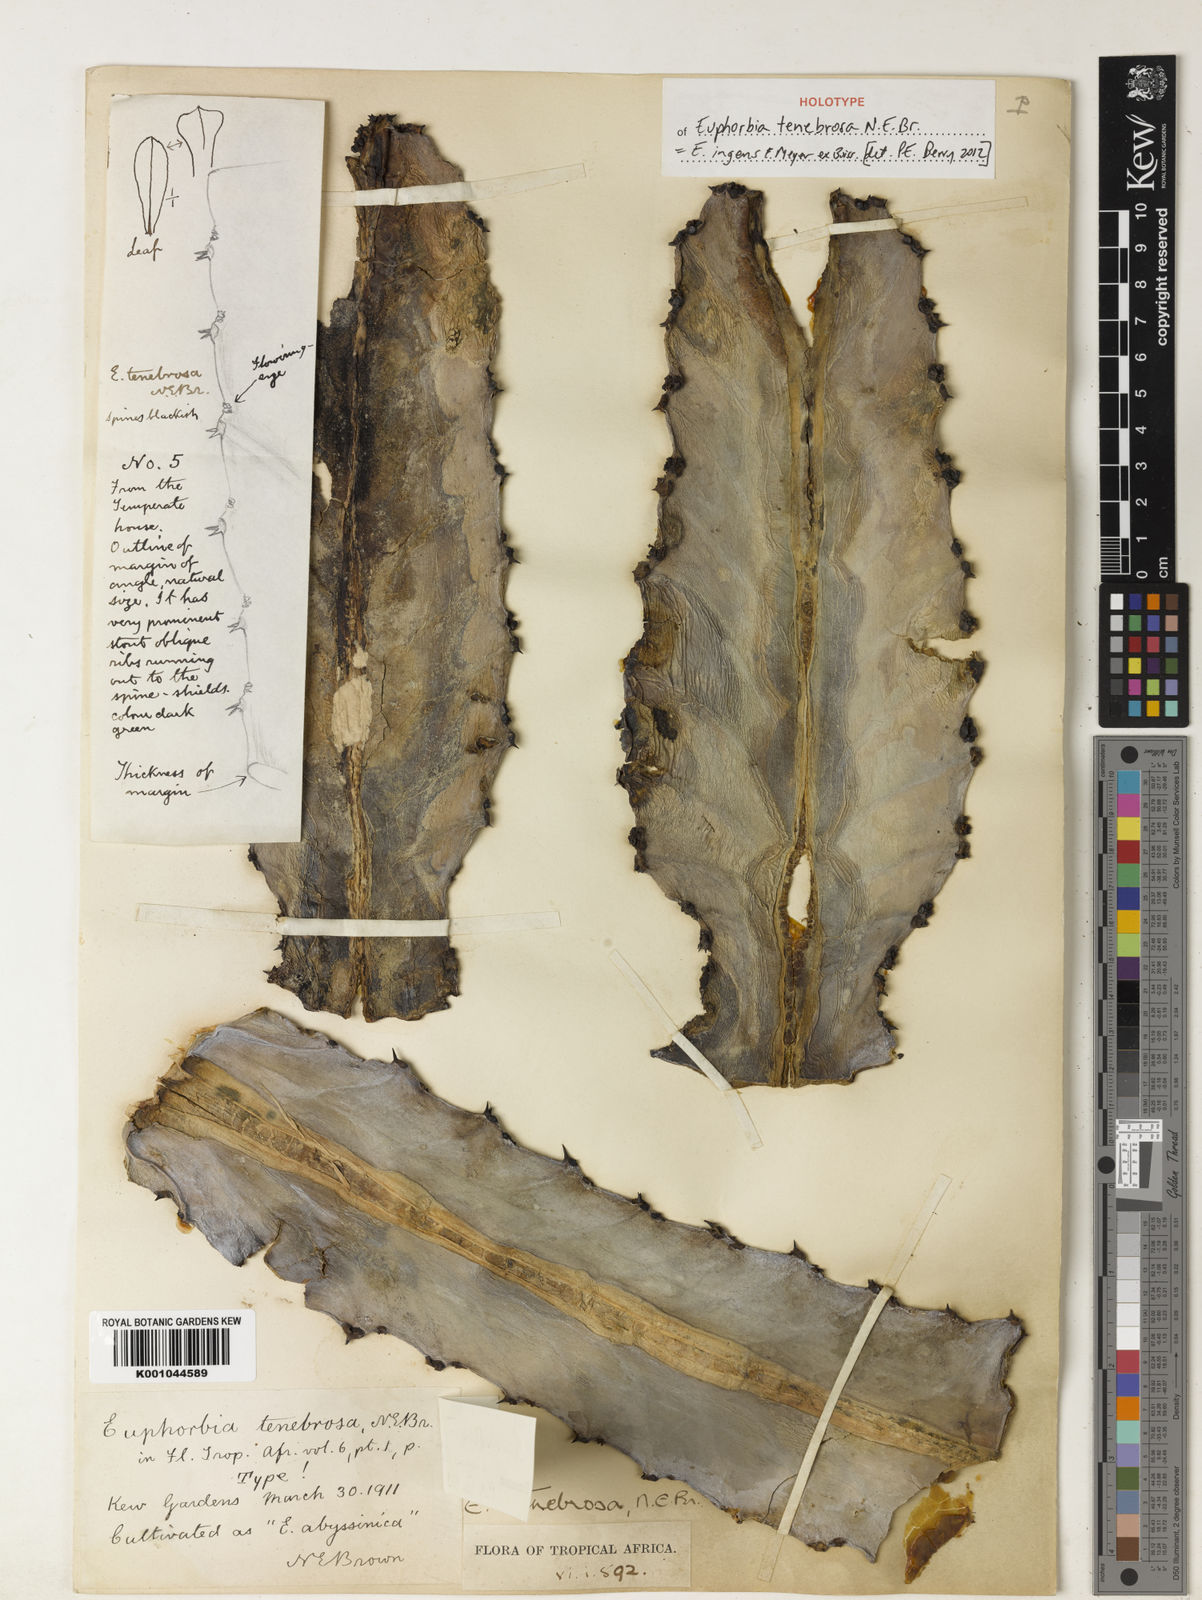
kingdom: Plantae
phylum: Tracheophyta
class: Magnoliopsida
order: Malpighiales
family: Euphorbiaceae
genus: Euphorbia
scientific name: Euphorbia ingens
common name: Cactus spurge
